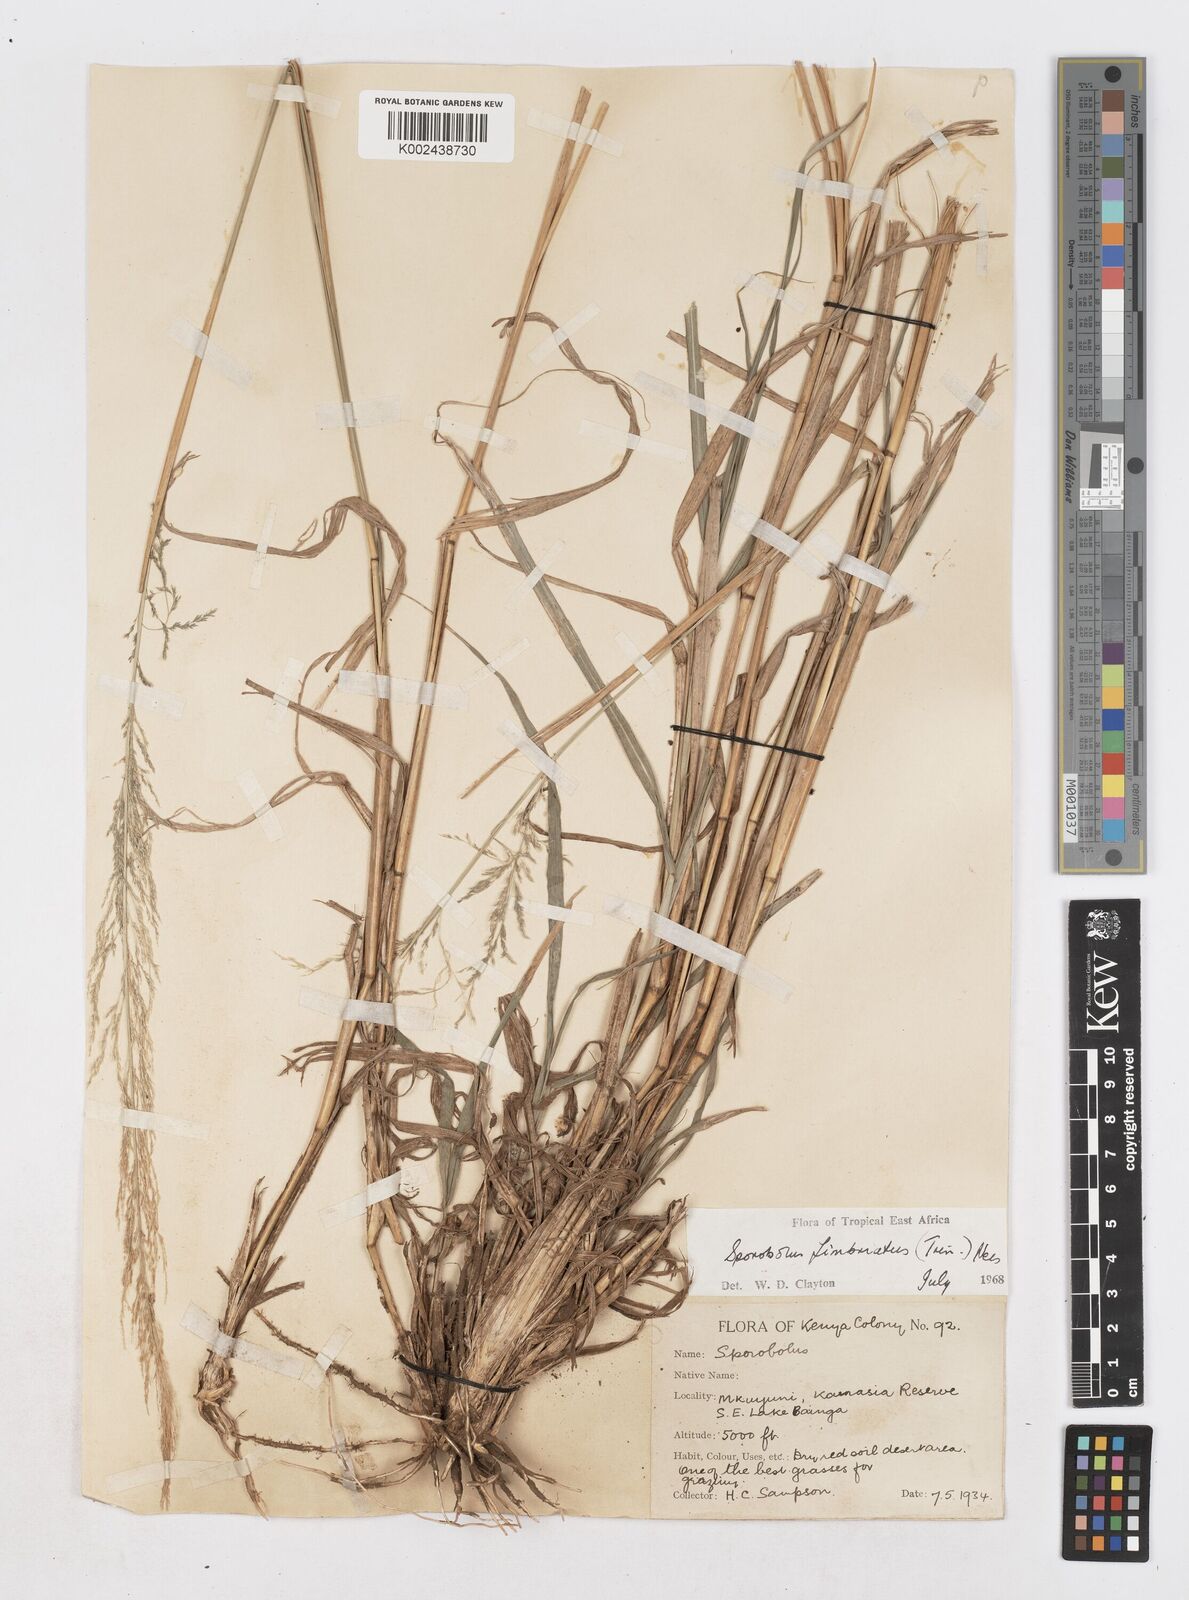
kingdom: Plantae
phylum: Tracheophyta
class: Liliopsida
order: Poales
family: Poaceae
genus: Sporobolus
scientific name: Sporobolus fimbriatus
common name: Fringed dropseed
